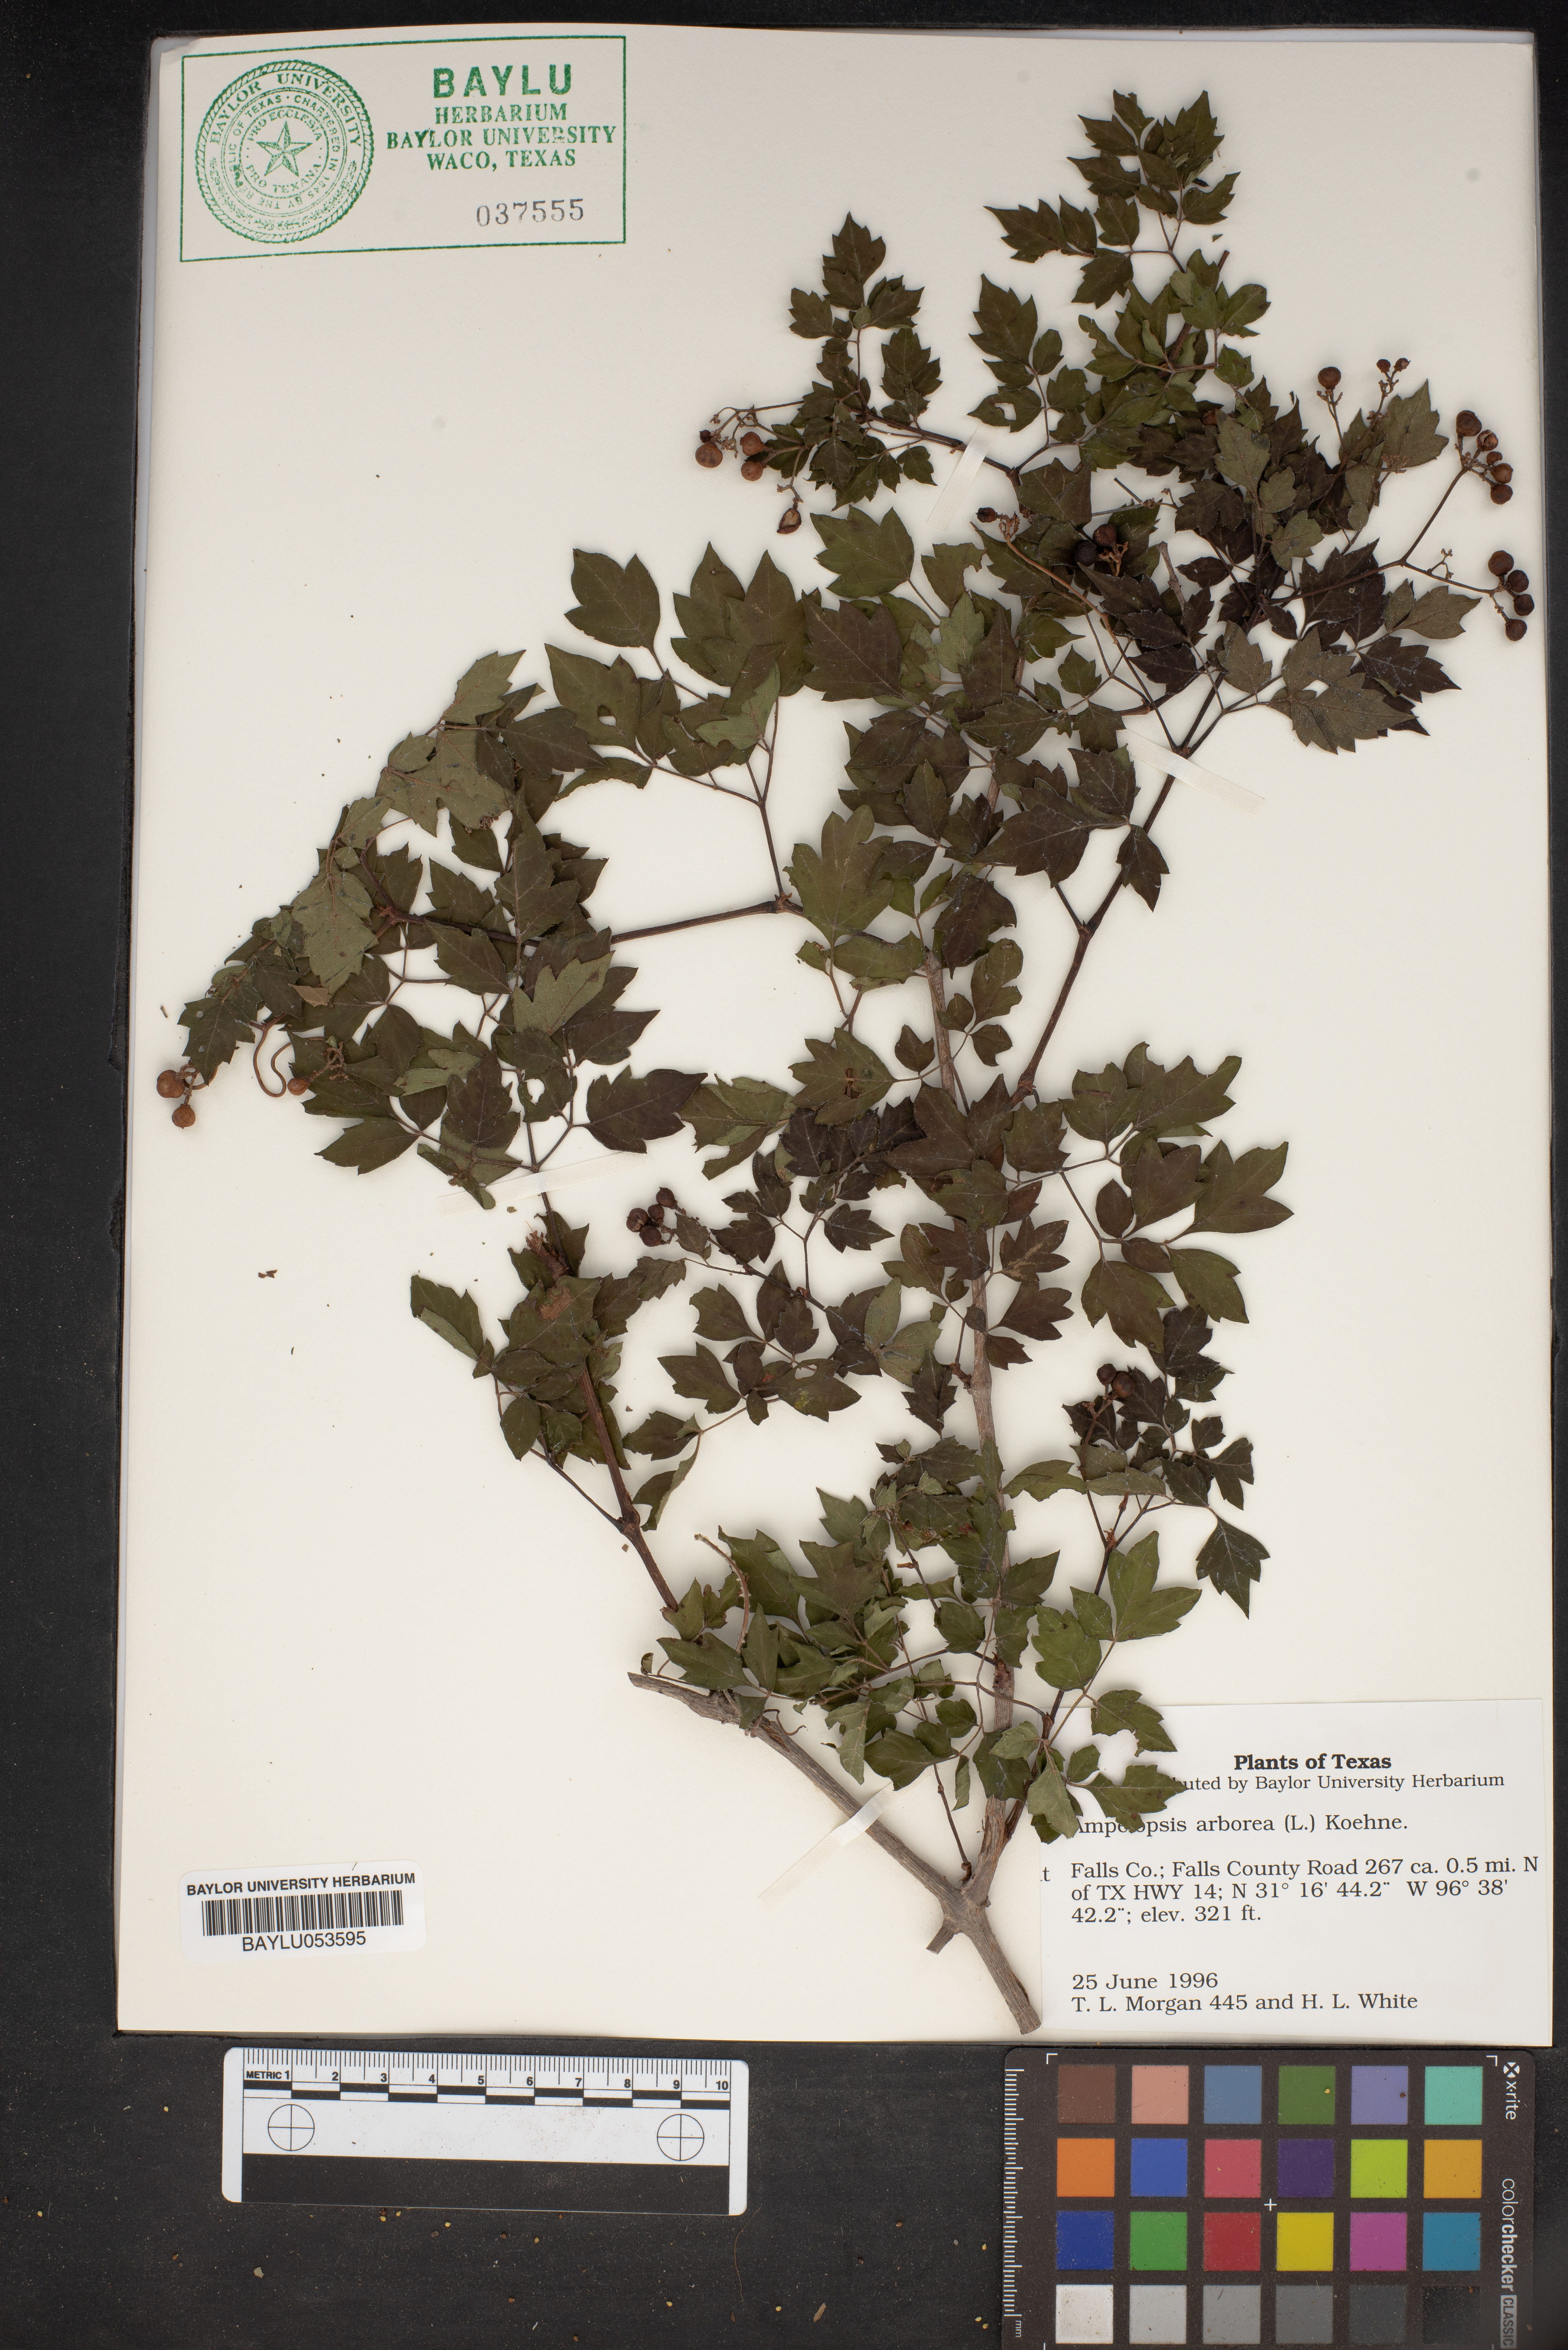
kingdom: Plantae
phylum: Tracheophyta
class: Magnoliopsida
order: Vitales
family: Vitaceae
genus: Nekemias
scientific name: Nekemias arborea
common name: Peppervine
